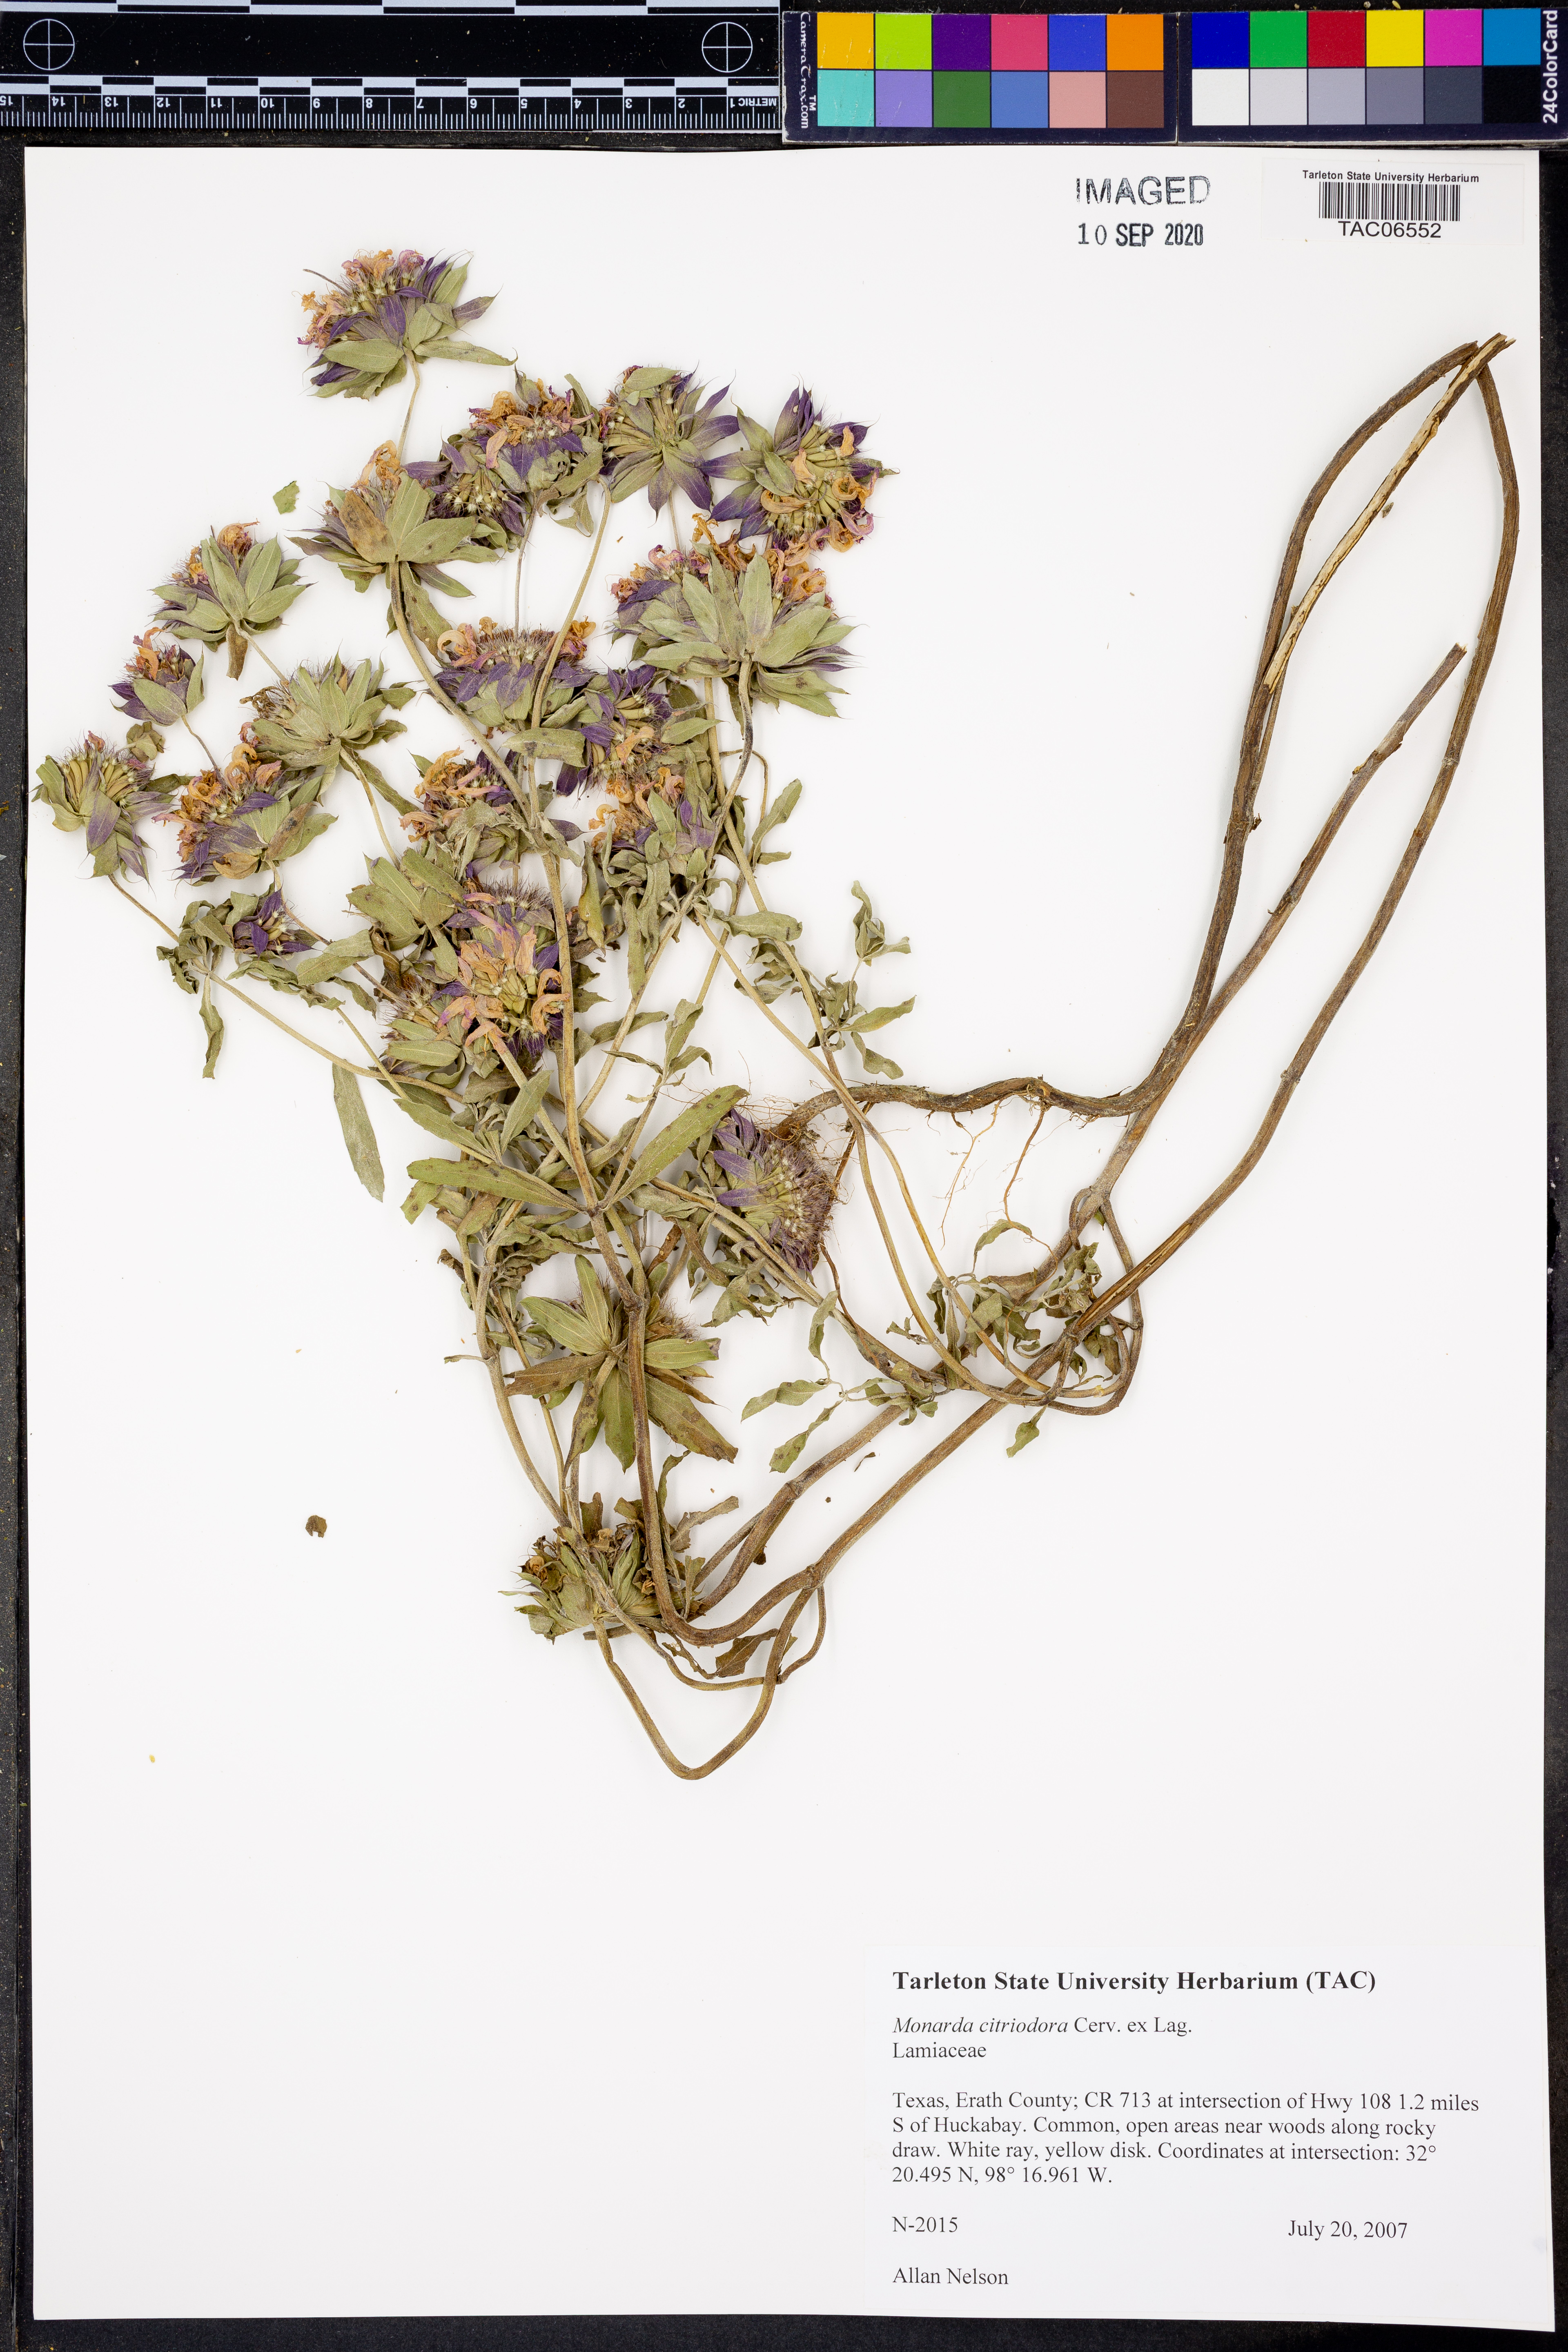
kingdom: Plantae
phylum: Tracheophyta
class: Magnoliopsida
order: Lamiales
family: Lamiaceae
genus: Monarda
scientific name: Monarda citriodora
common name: Lemon beebalm
